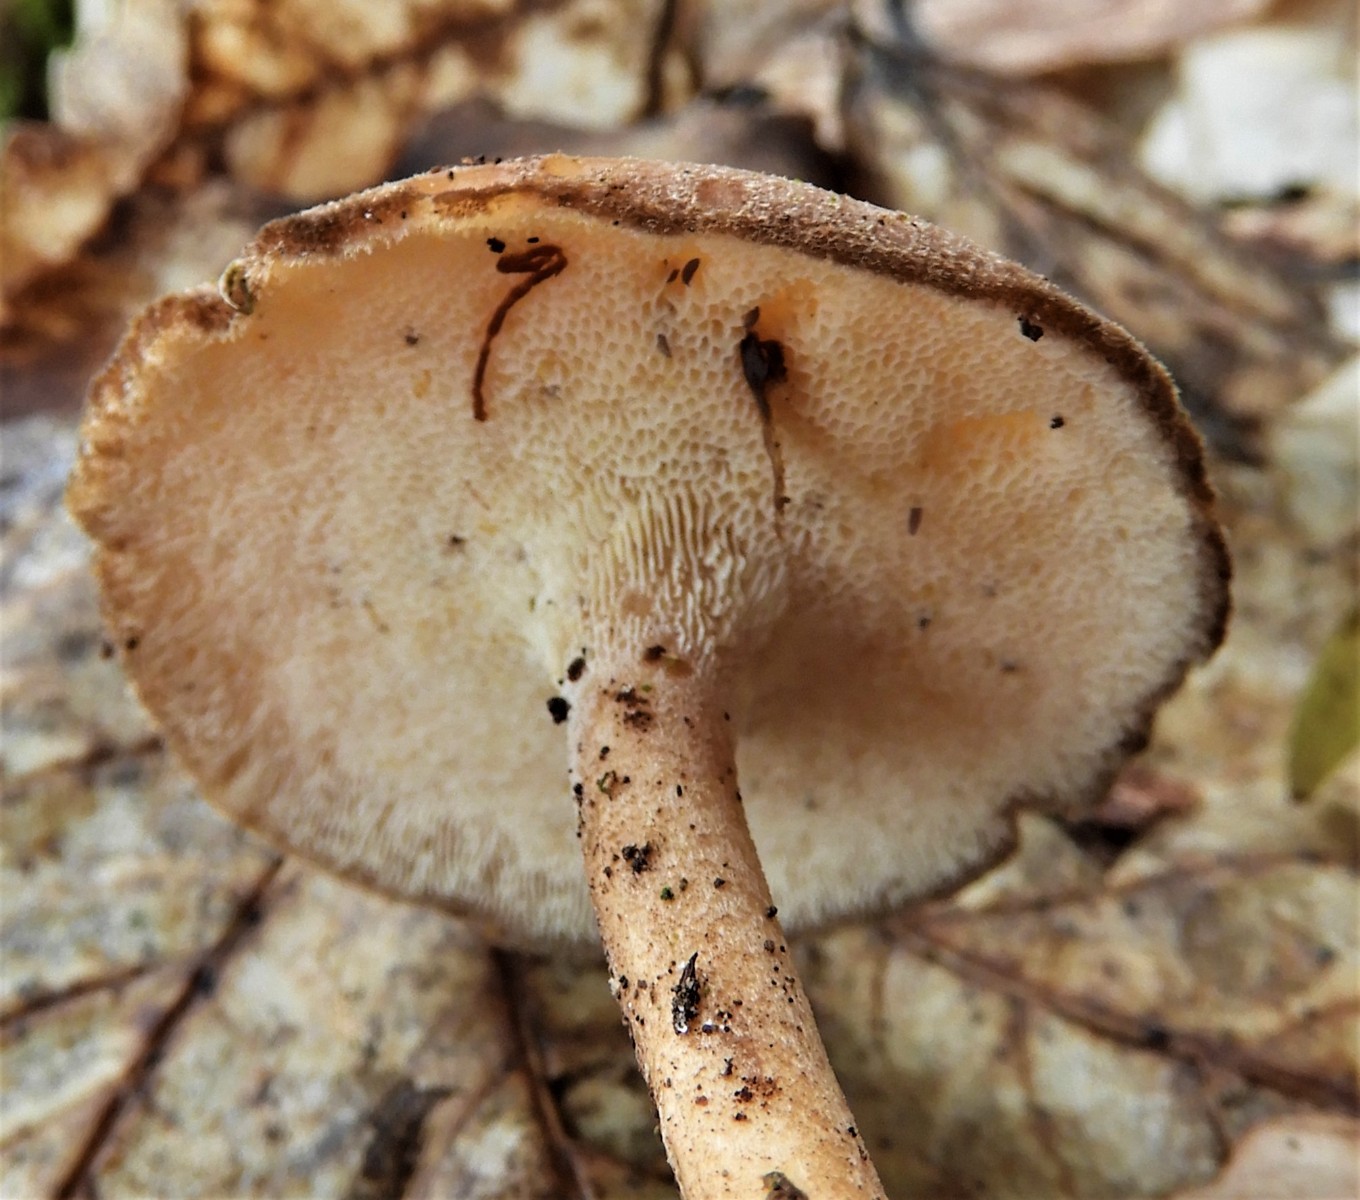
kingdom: Fungi
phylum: Basidiomycota
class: Agaricomycetes
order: Polyporales
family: Polyporaceae
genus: Lentinus
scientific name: Lentinus brumalis
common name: vinter-stilkporesvamp
